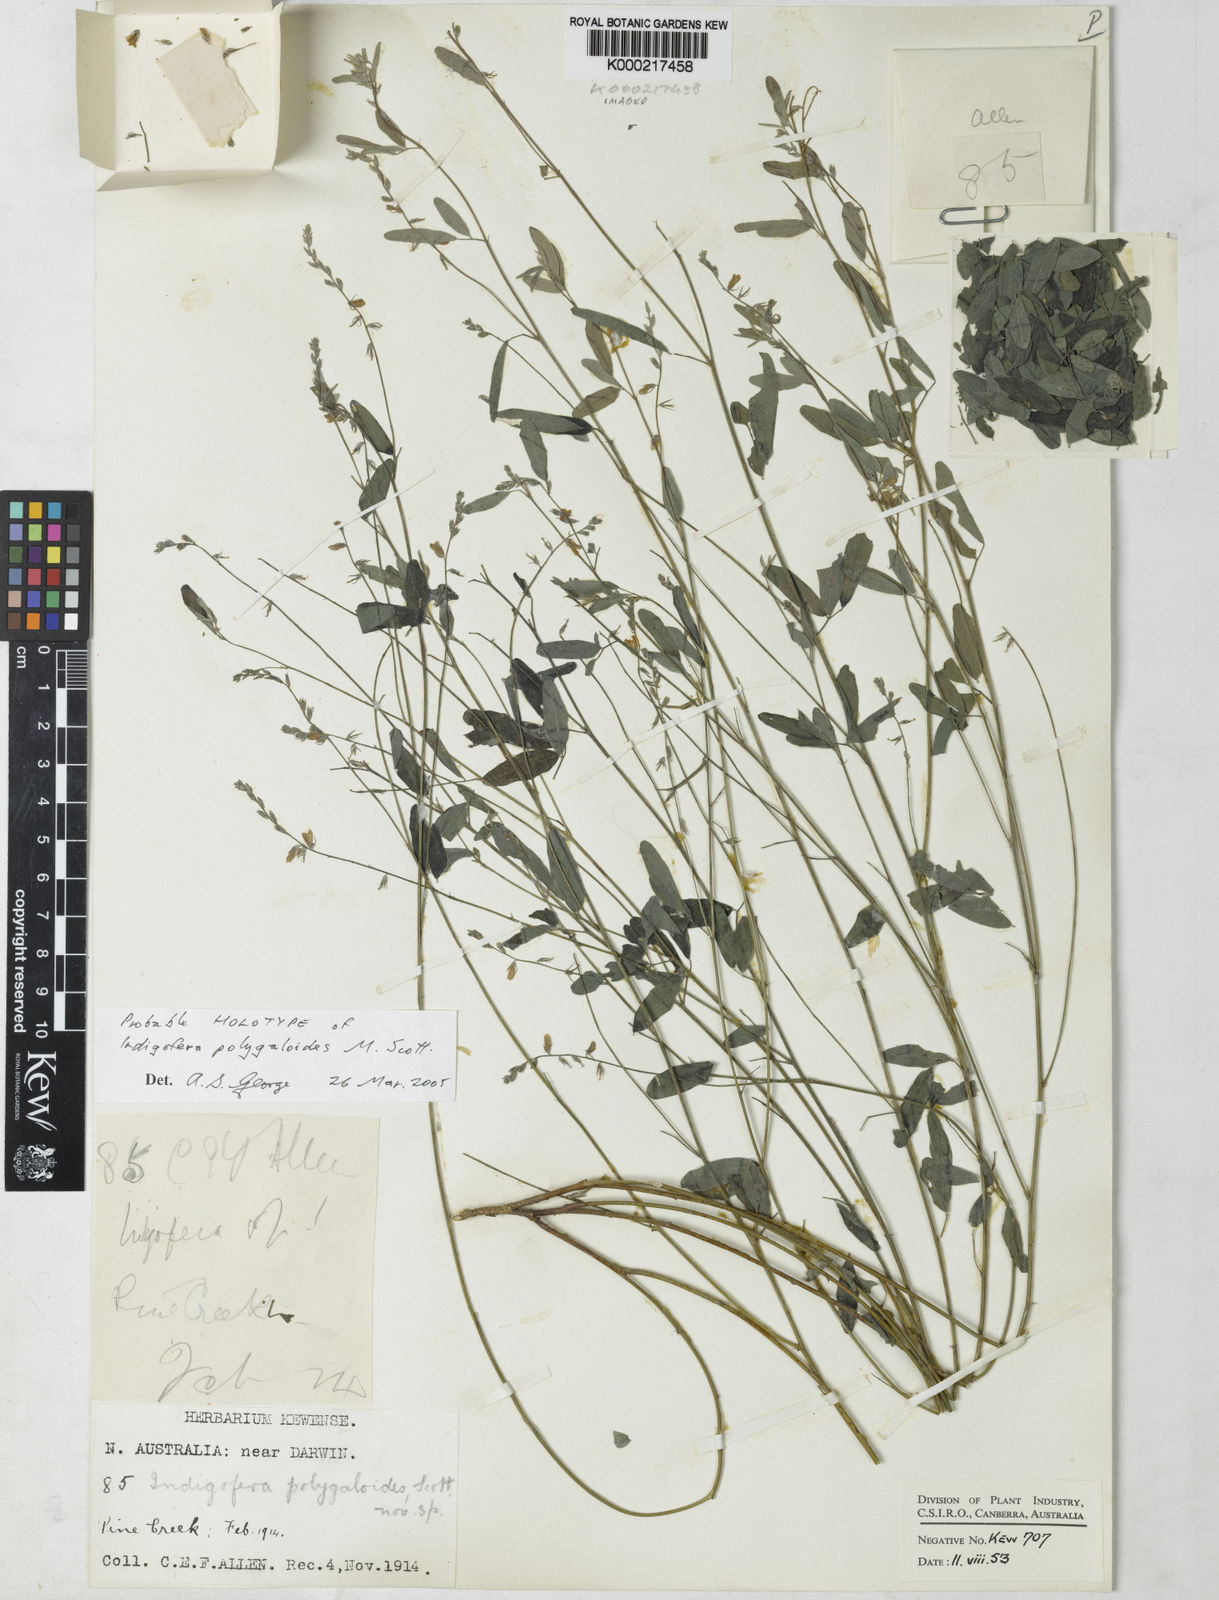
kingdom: Plantae
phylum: Tracheophyta
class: Magnoliopsida
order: Fabales
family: Fabaceae
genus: Indigofera
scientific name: Indigofera polygaloides
